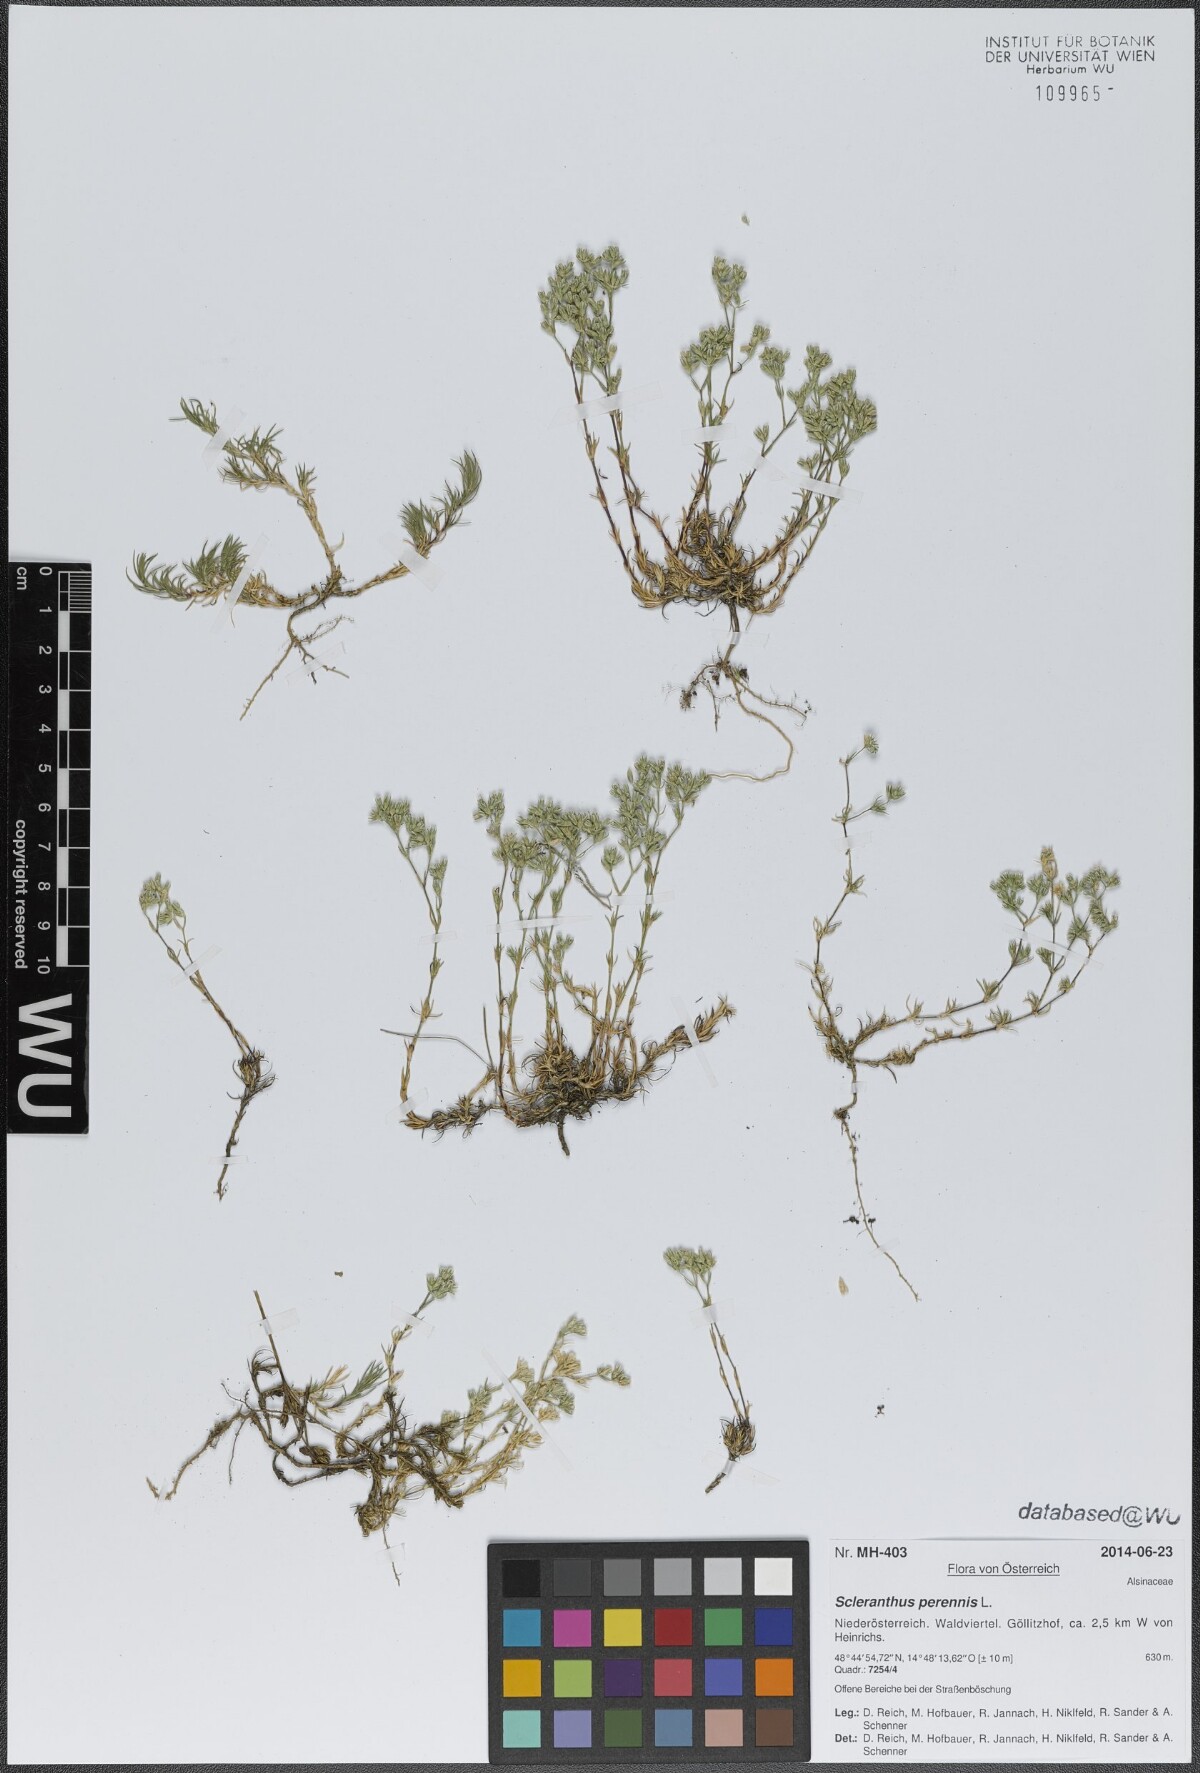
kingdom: Plantae
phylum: Tracheophyta
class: Magnoliopsida
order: Caryophyllales
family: Caryophyllaceae
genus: Scleranthus
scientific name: Scleranthus perennis
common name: Perennial knawel
